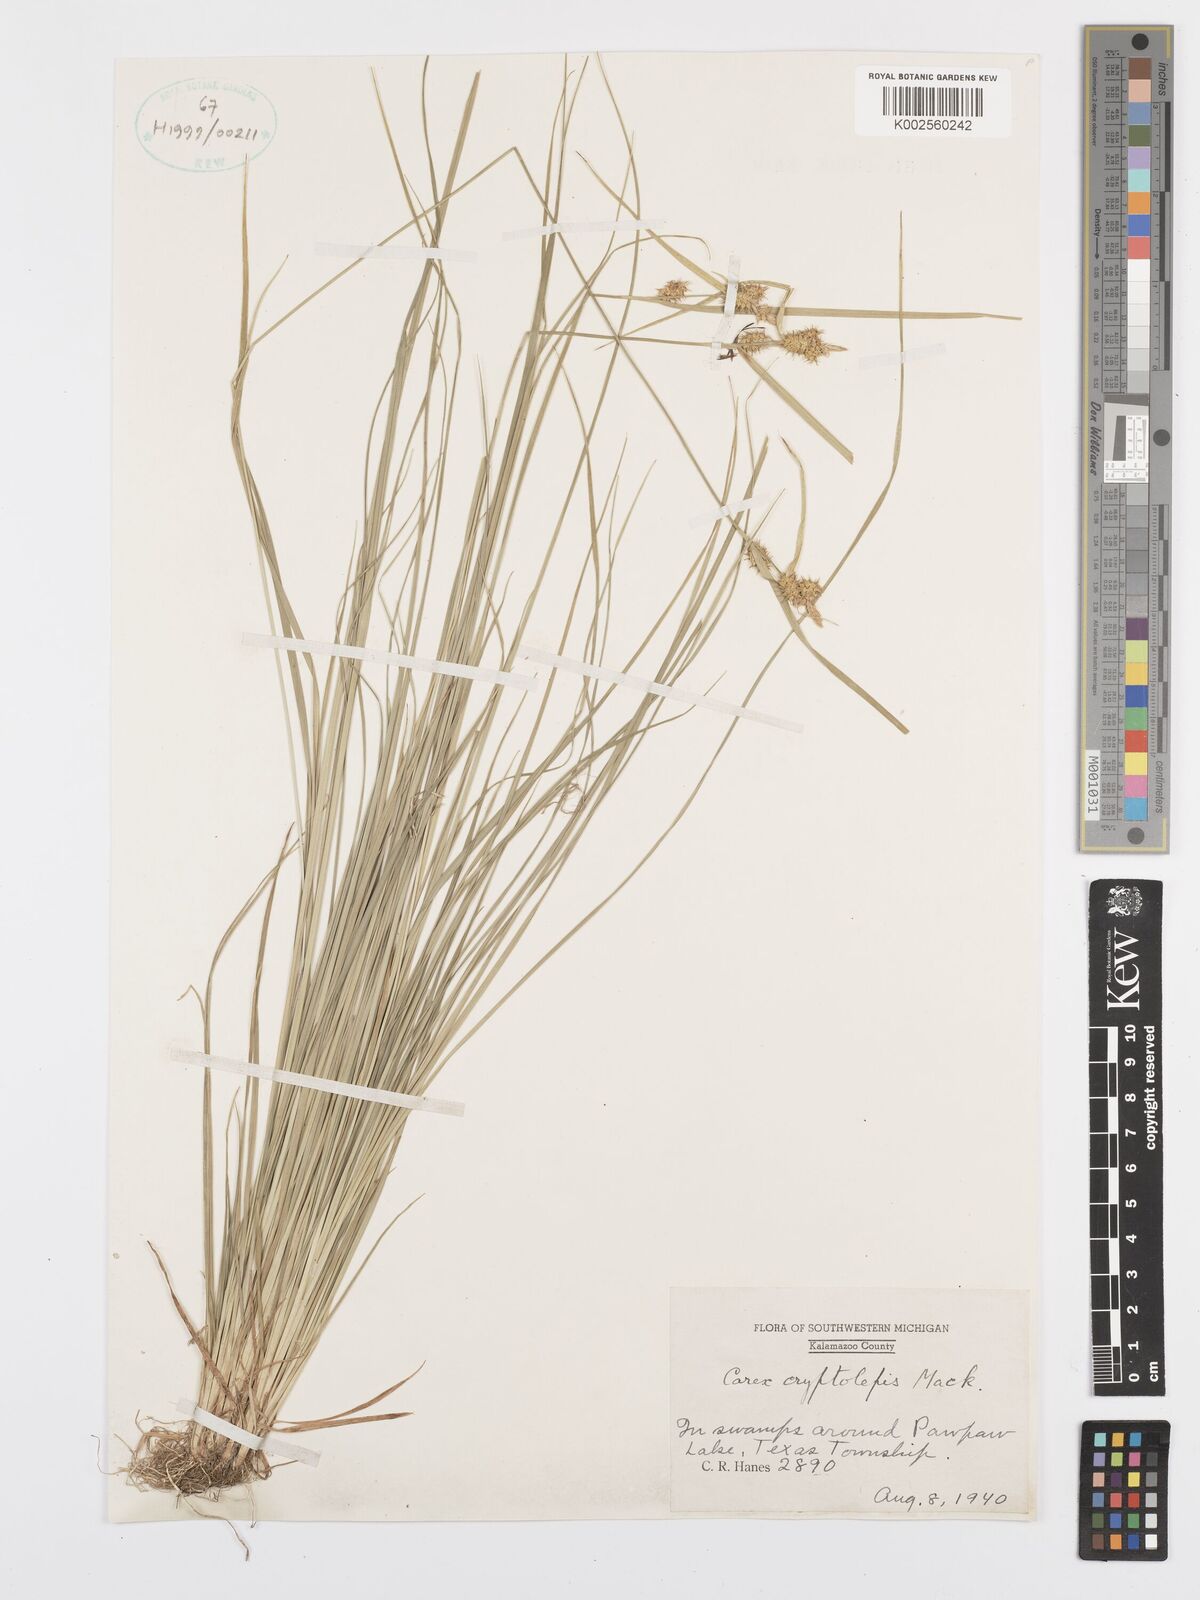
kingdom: Plantae
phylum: Tracheophyta
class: Liliopsida
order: Poales
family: Cyperaceae
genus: Carex
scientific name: Carex cryptolepis
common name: Northeastern sedge
